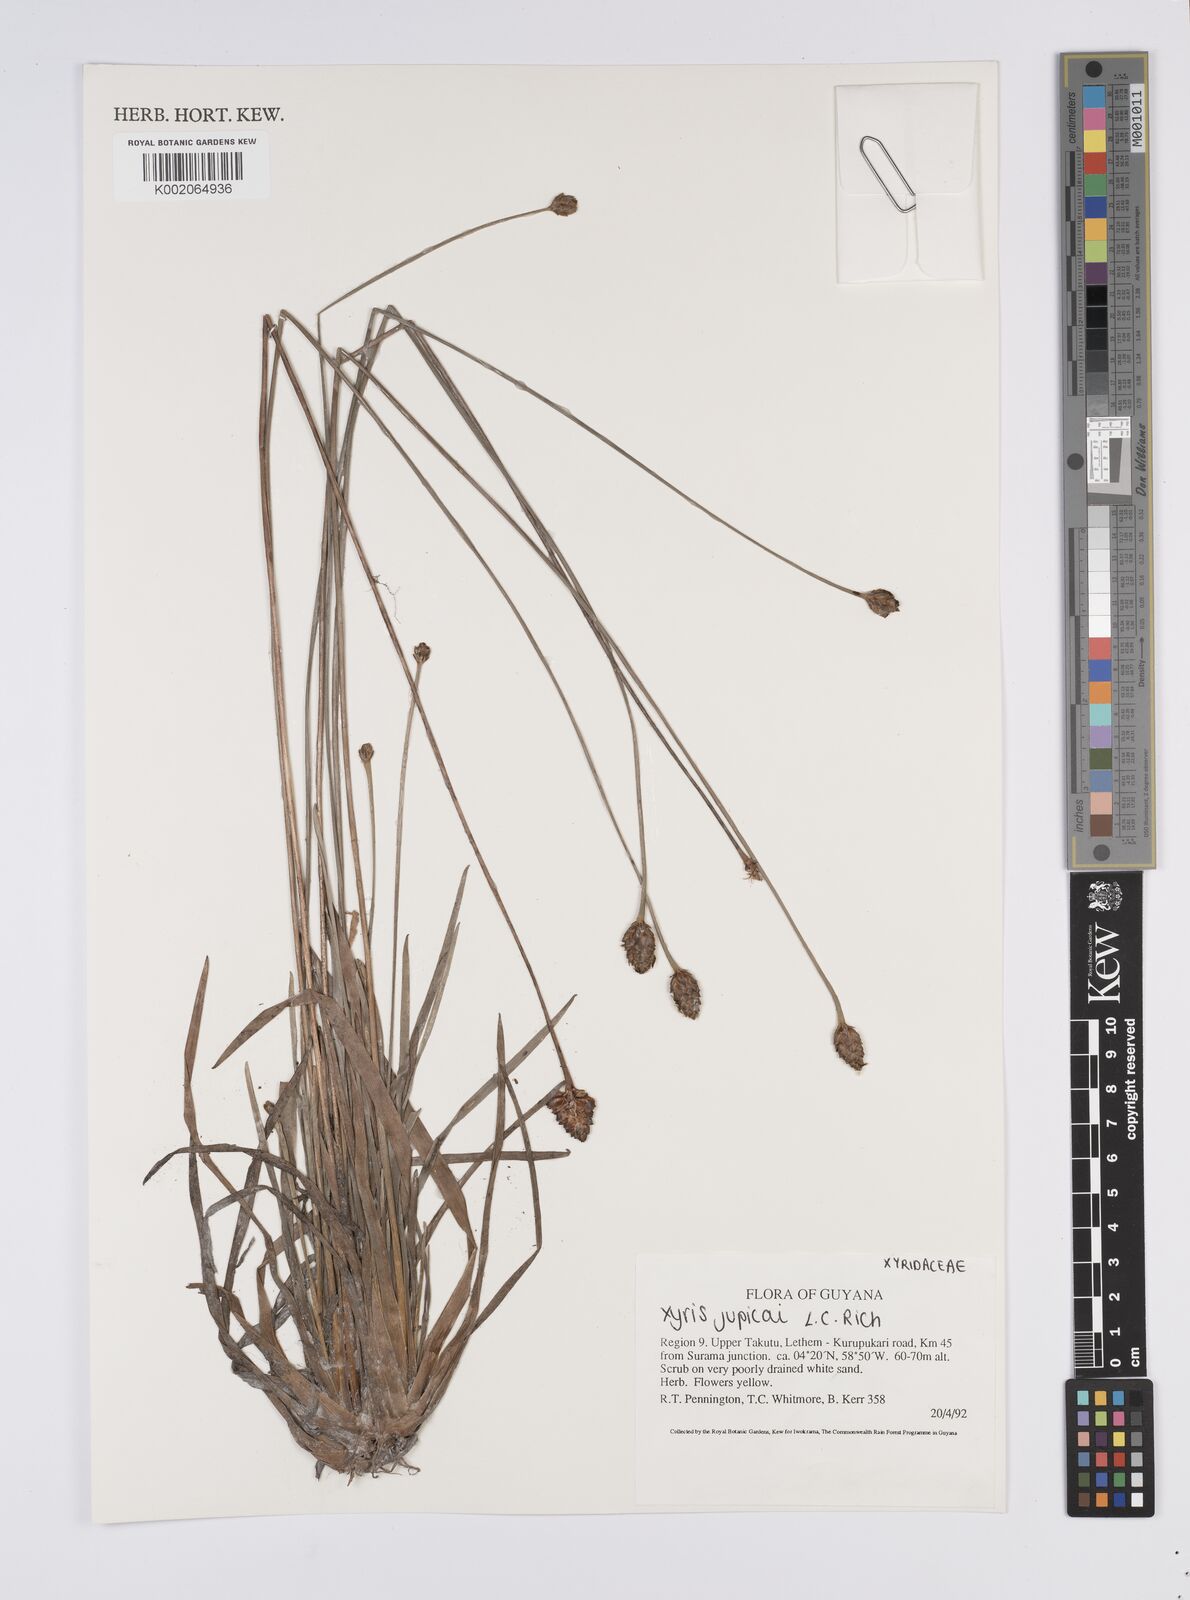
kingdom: Plantae
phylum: Tracheophyta
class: Liliopsida
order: Poales
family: Xyridaceae
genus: Xyris
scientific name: Xyris jupicai
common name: Richard's yelloweyed grass
